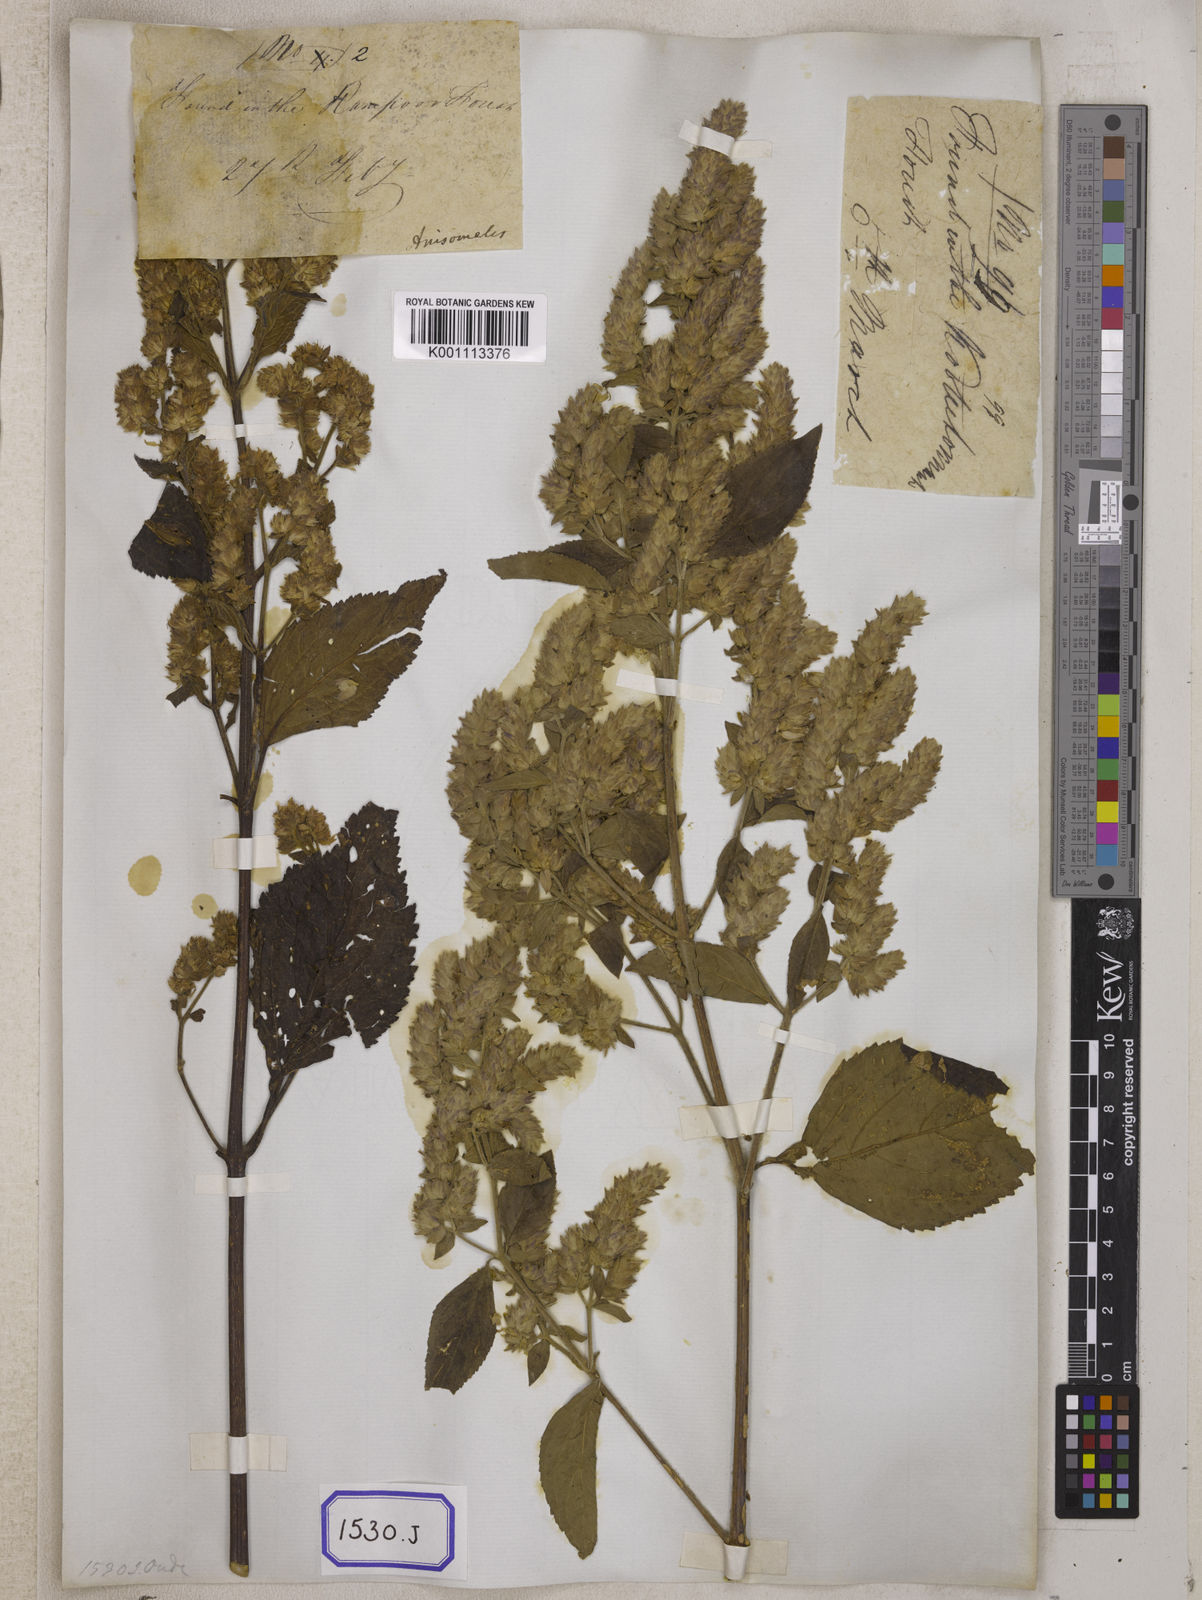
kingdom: Plantae
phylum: Tracheophyta
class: Magnoliopsida
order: Lamiales
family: Lamiaceae
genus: Pogostemon
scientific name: Pogostemon
